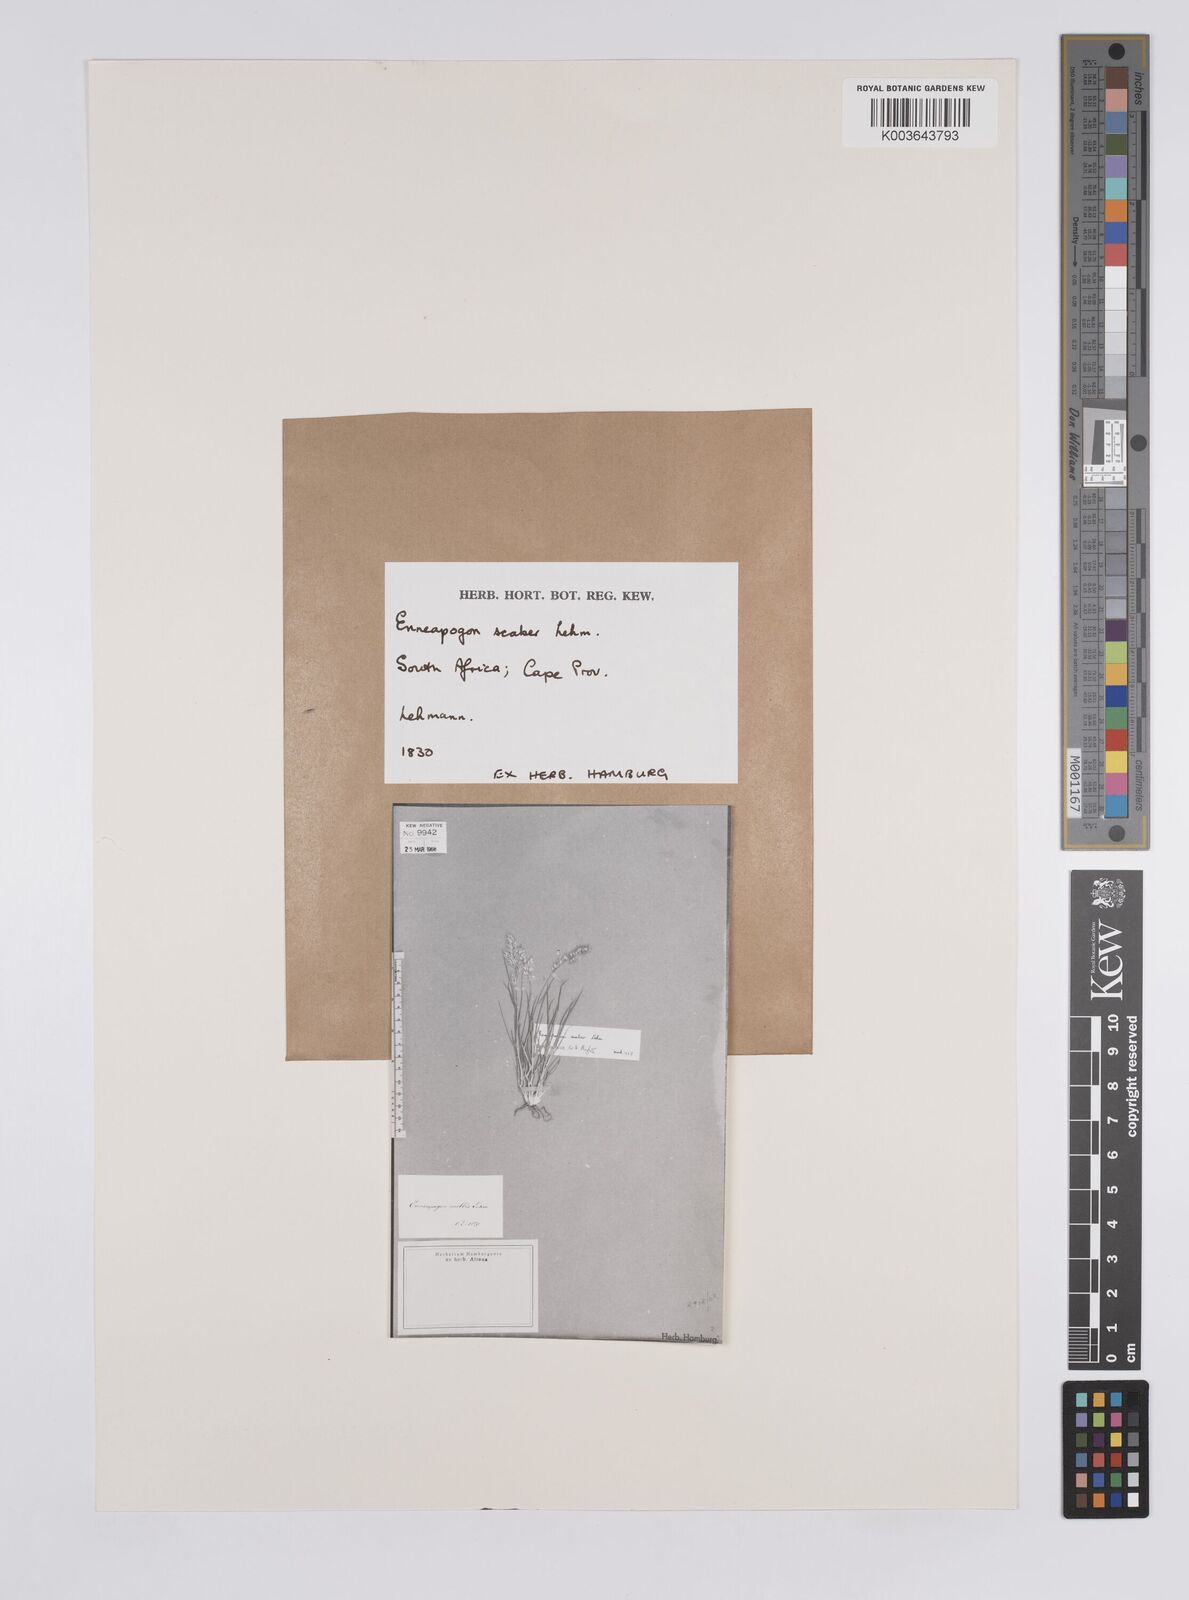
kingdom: Plantae
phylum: Tracheophyta
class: Liliopsida
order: Poales
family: Poaceae
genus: Enneapogon
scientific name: Enneapogon scaber
